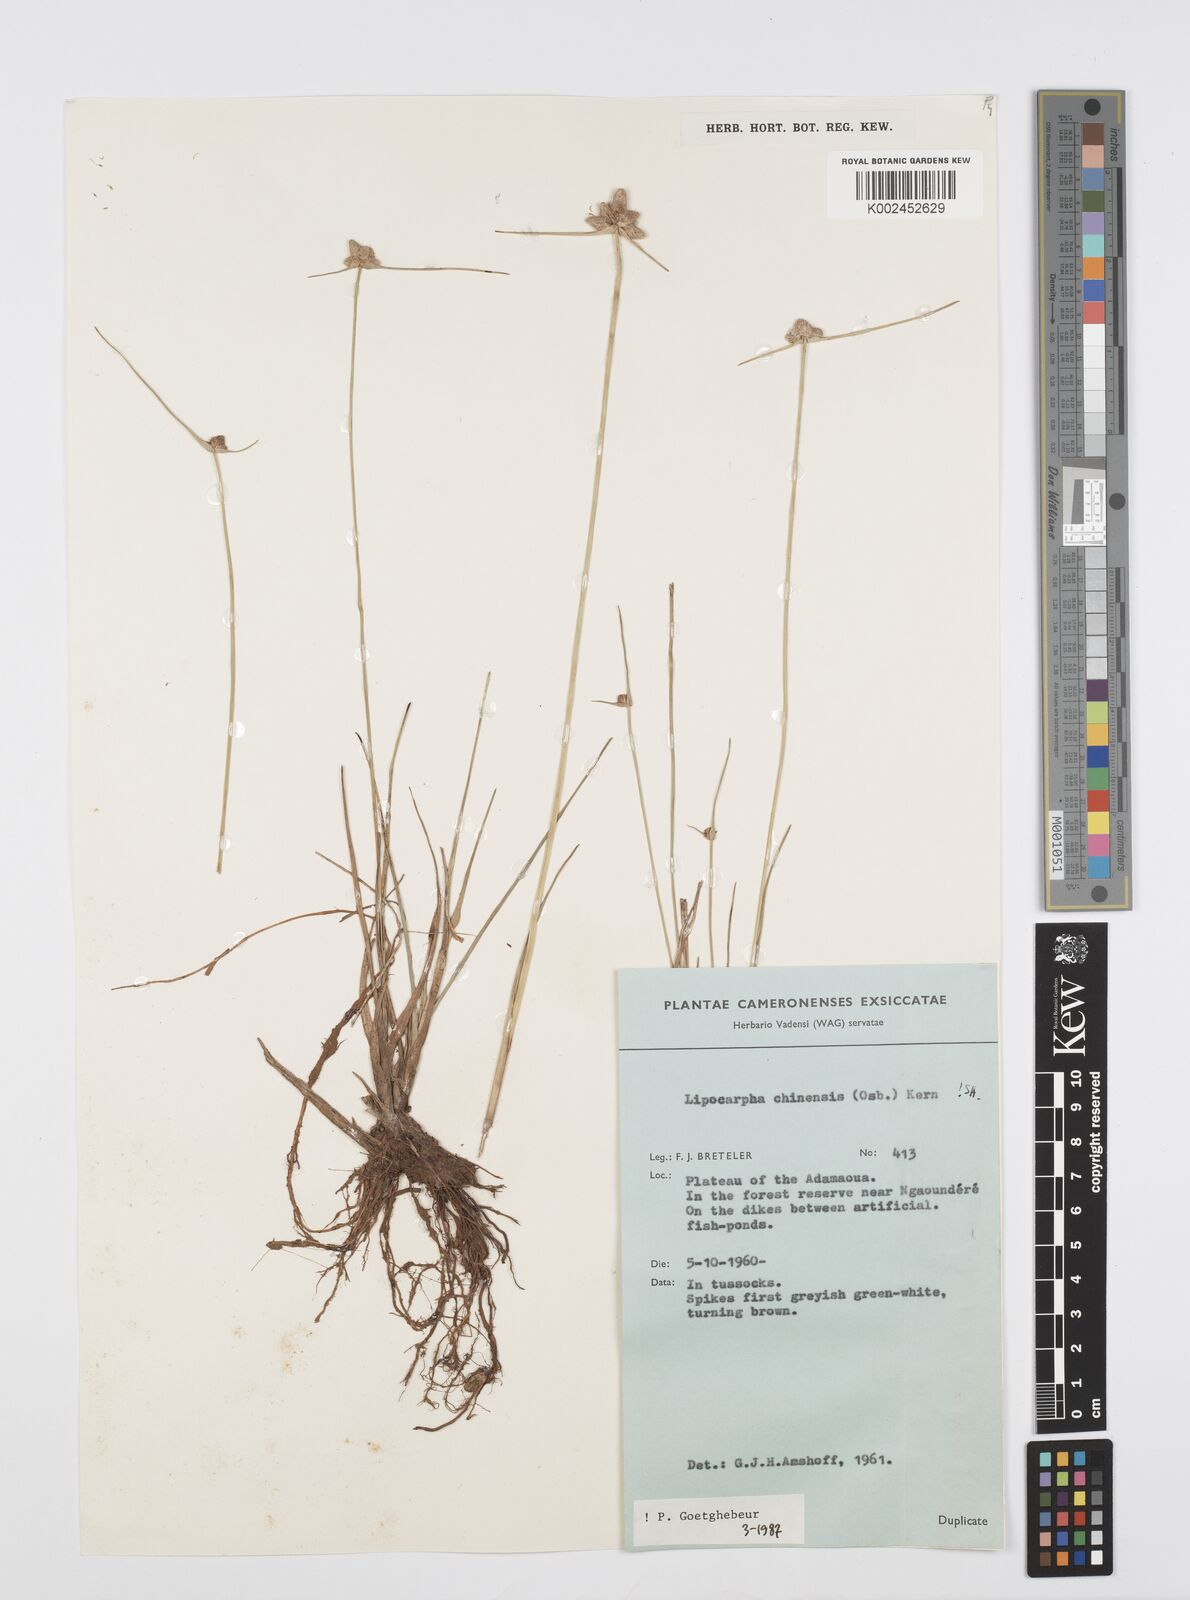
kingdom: Plantae
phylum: Tracheophyta
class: Liliopsida
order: Poales
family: Cyperaceae
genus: Cyperus
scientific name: Cyperus albescens
